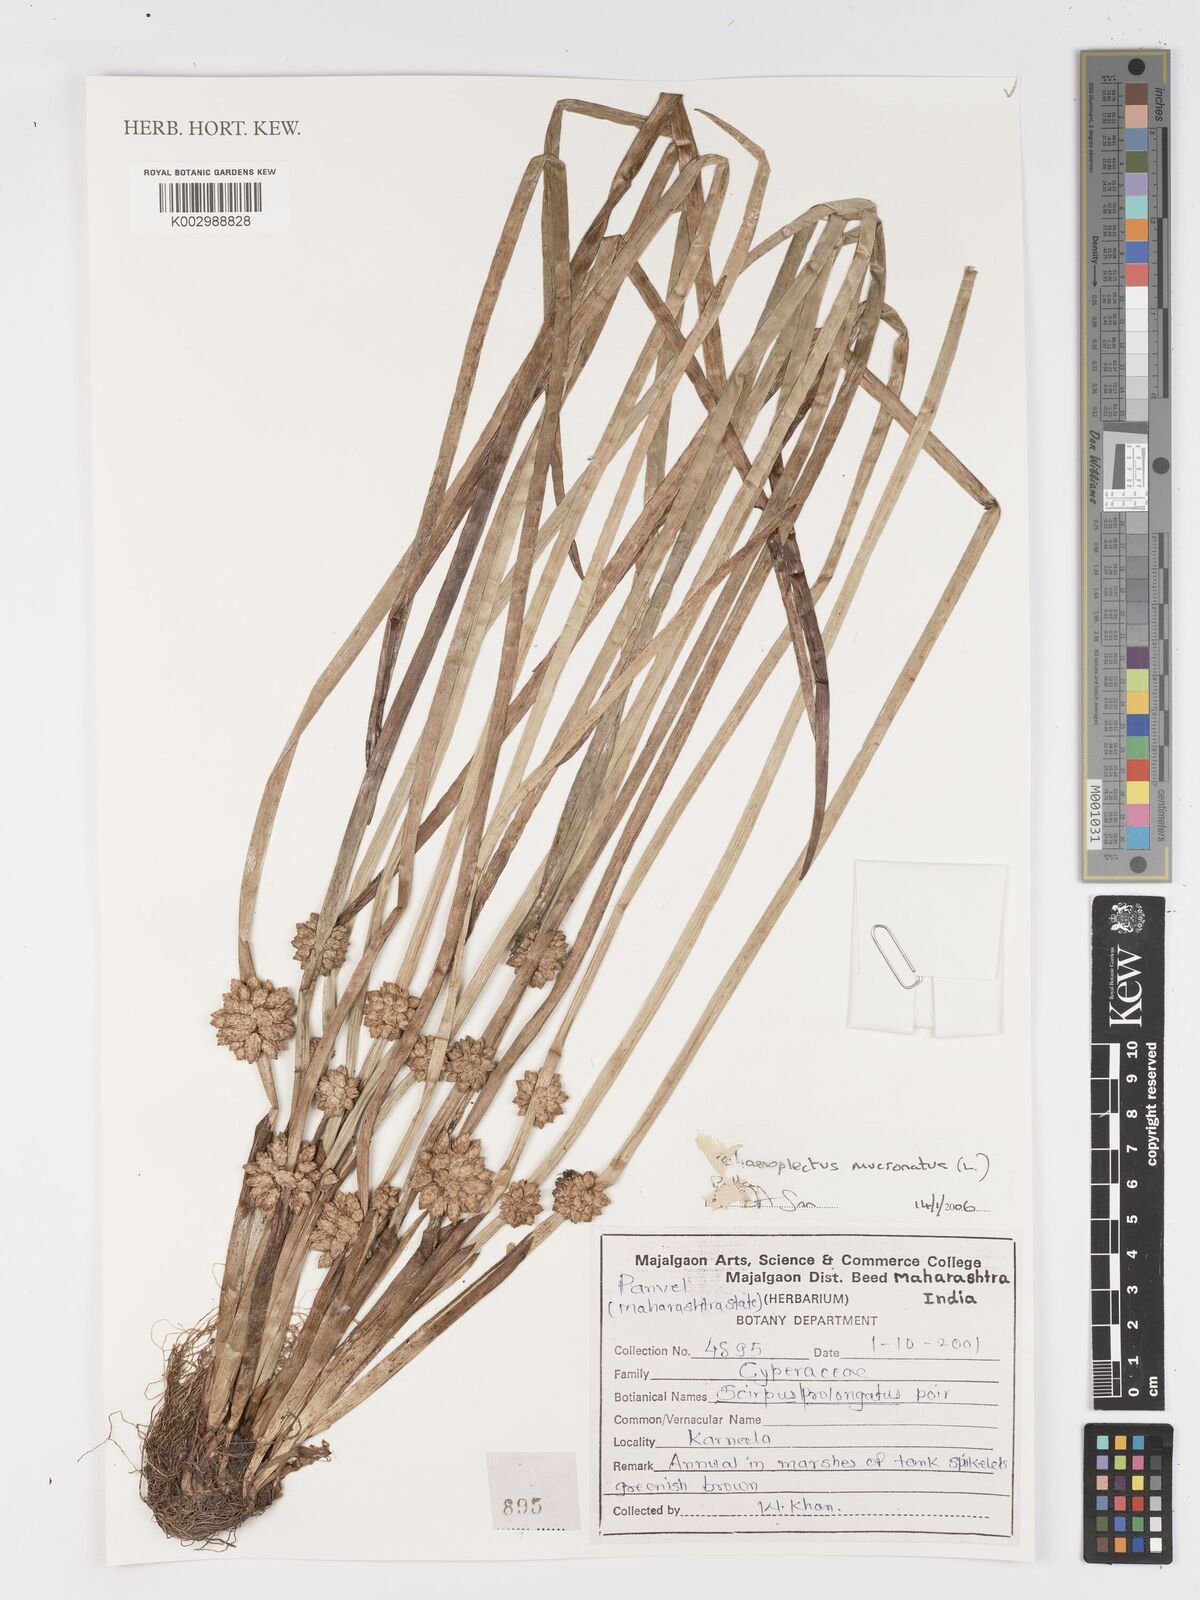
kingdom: Plantae
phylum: Tracheophyta
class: Liliopsida
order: Poales
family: Cyperaceae
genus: Schoenoplectiella
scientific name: Schoenoplectiella mucronata
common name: Bog bulrush
